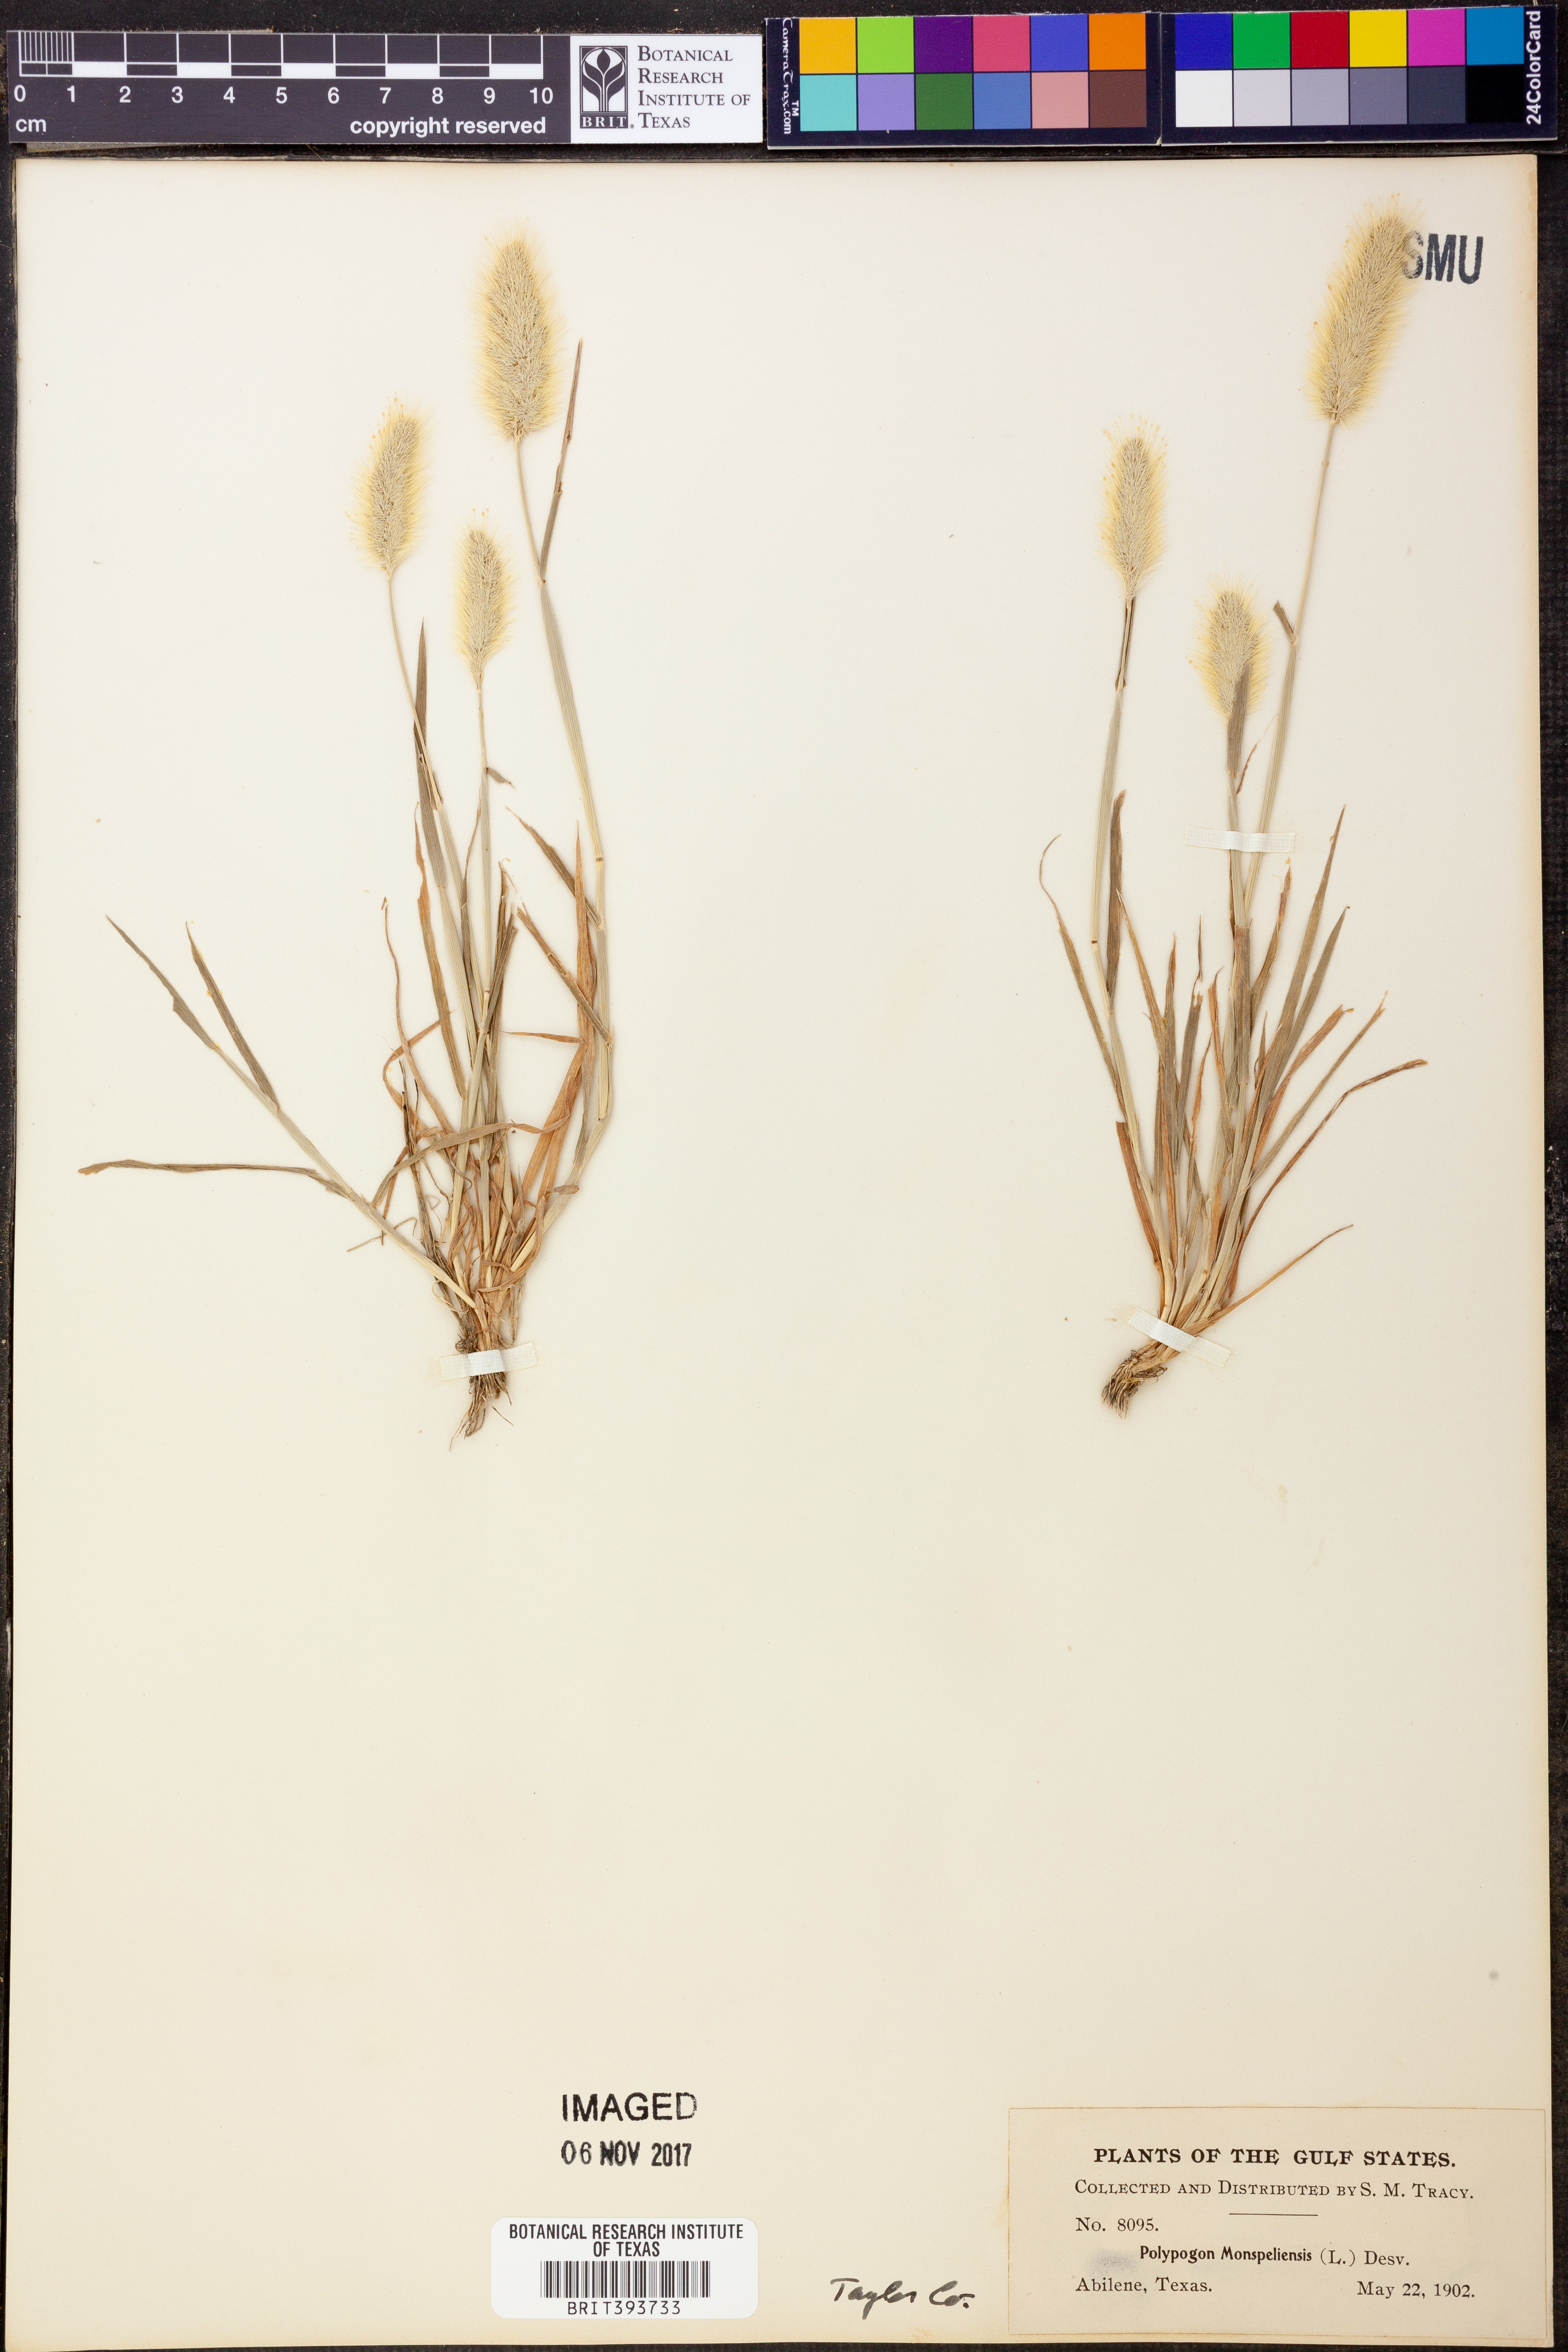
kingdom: Plantae
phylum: Tracheophyta
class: Liliopsida
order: Poales
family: Poaceae
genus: Polypogon
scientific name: Polypogon monspeliensis
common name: Annual rabbitsfoot grass
